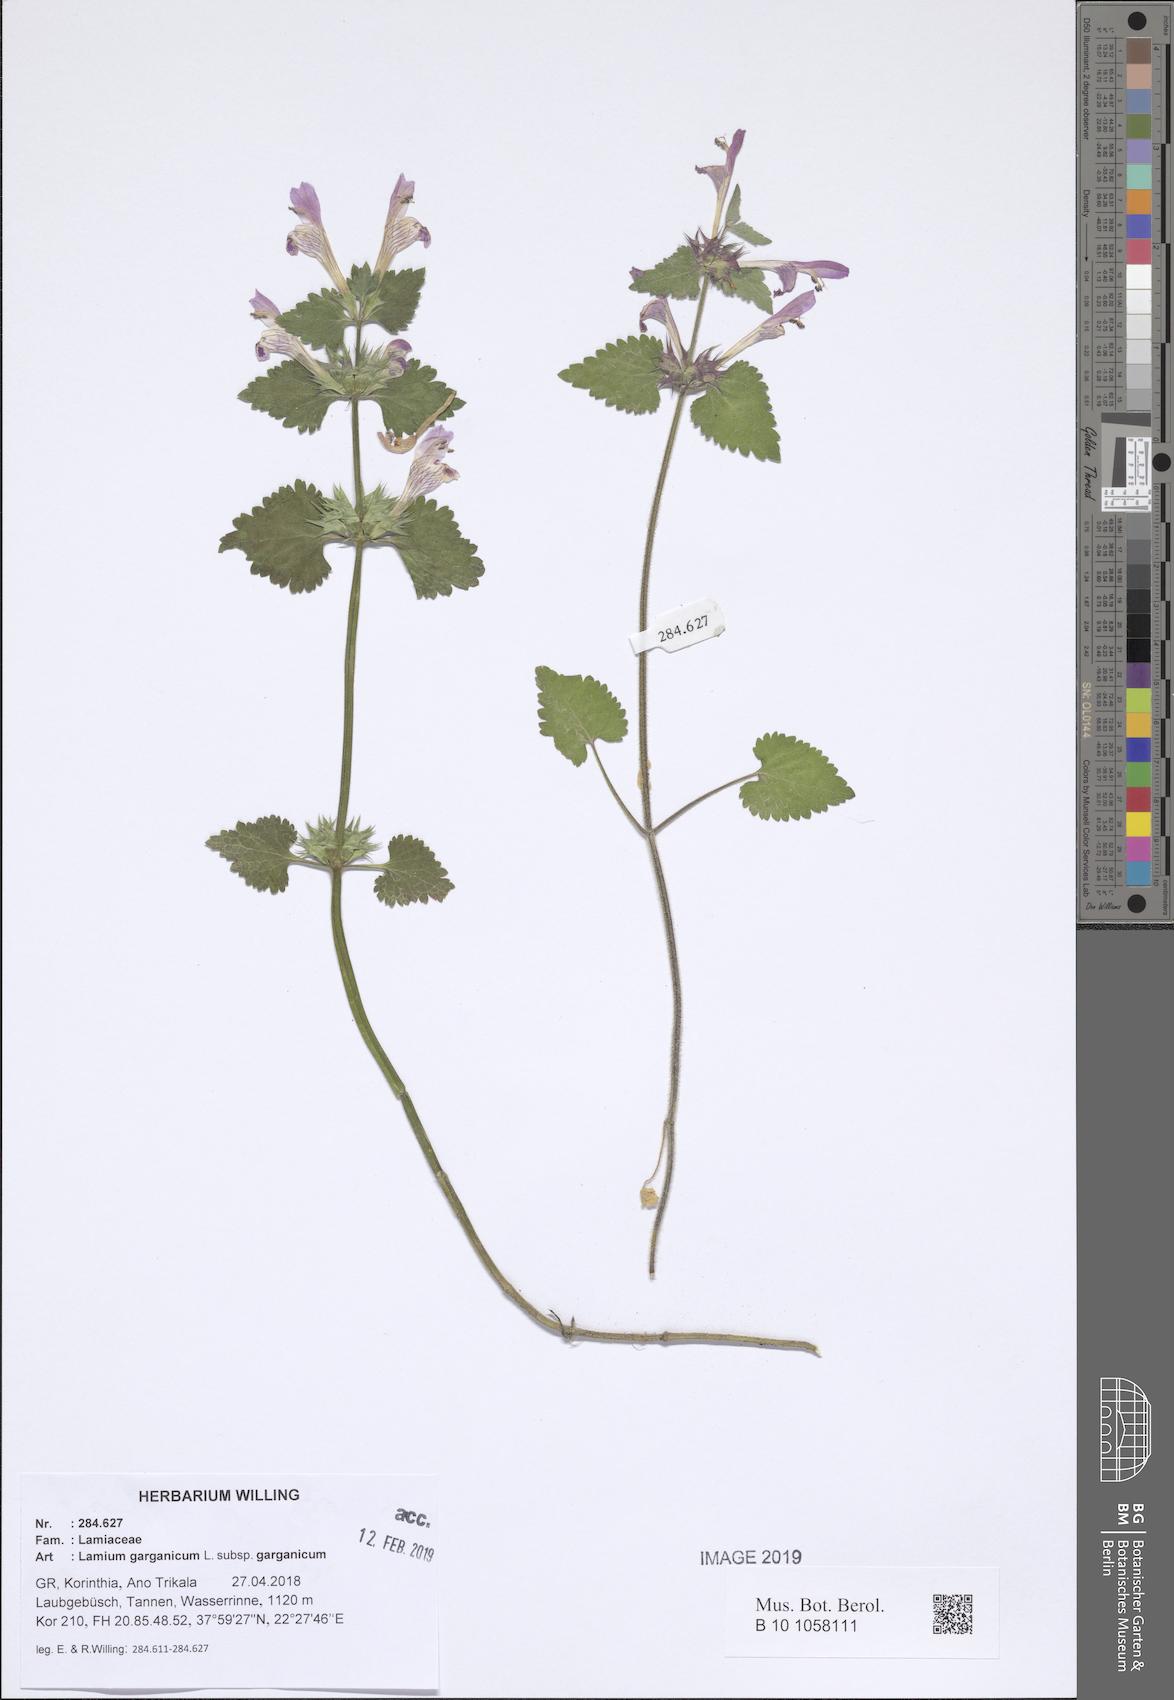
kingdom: Plantae
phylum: Tracheophyta
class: Magnoliopsida
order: Lamiales
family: Lamiaceae
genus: Lamium
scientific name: Lamium garganicum
